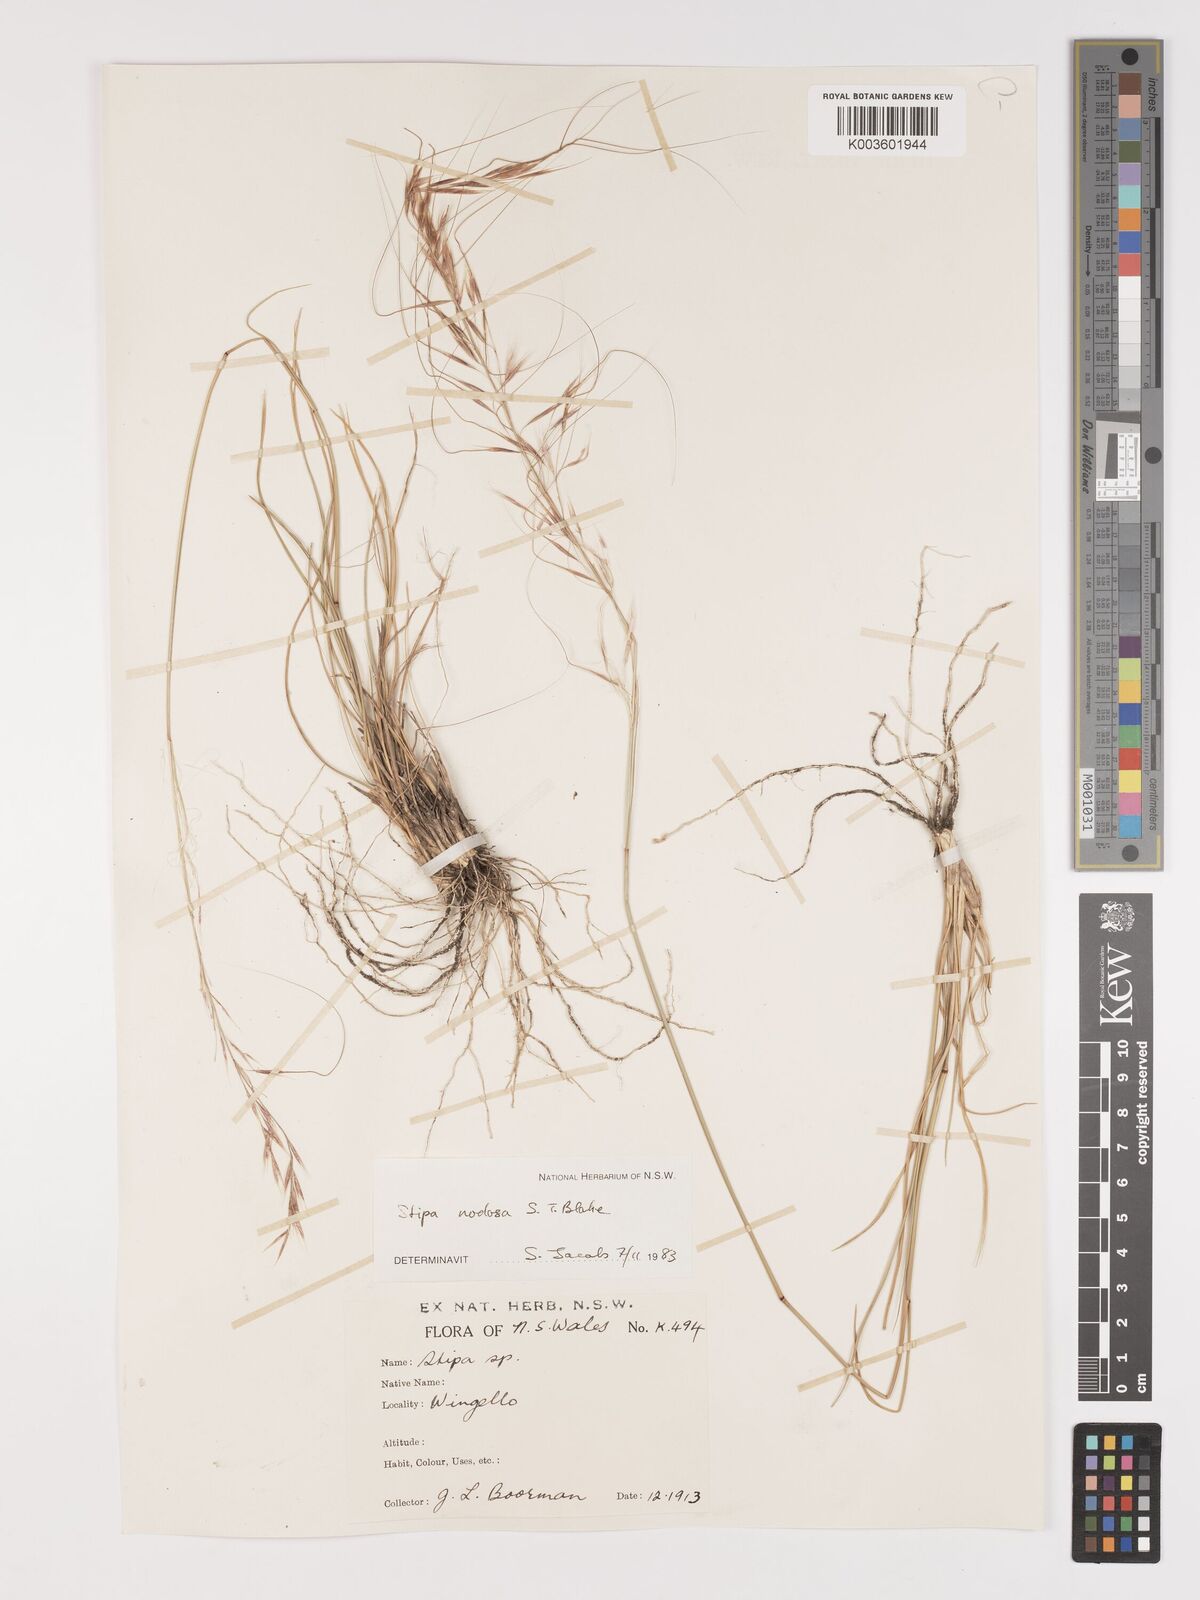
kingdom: Plantae
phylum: Tracheophyta
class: Liliopsida
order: Poales
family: Poaceae
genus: Austrostipa
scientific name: Austrostipa nodosa
